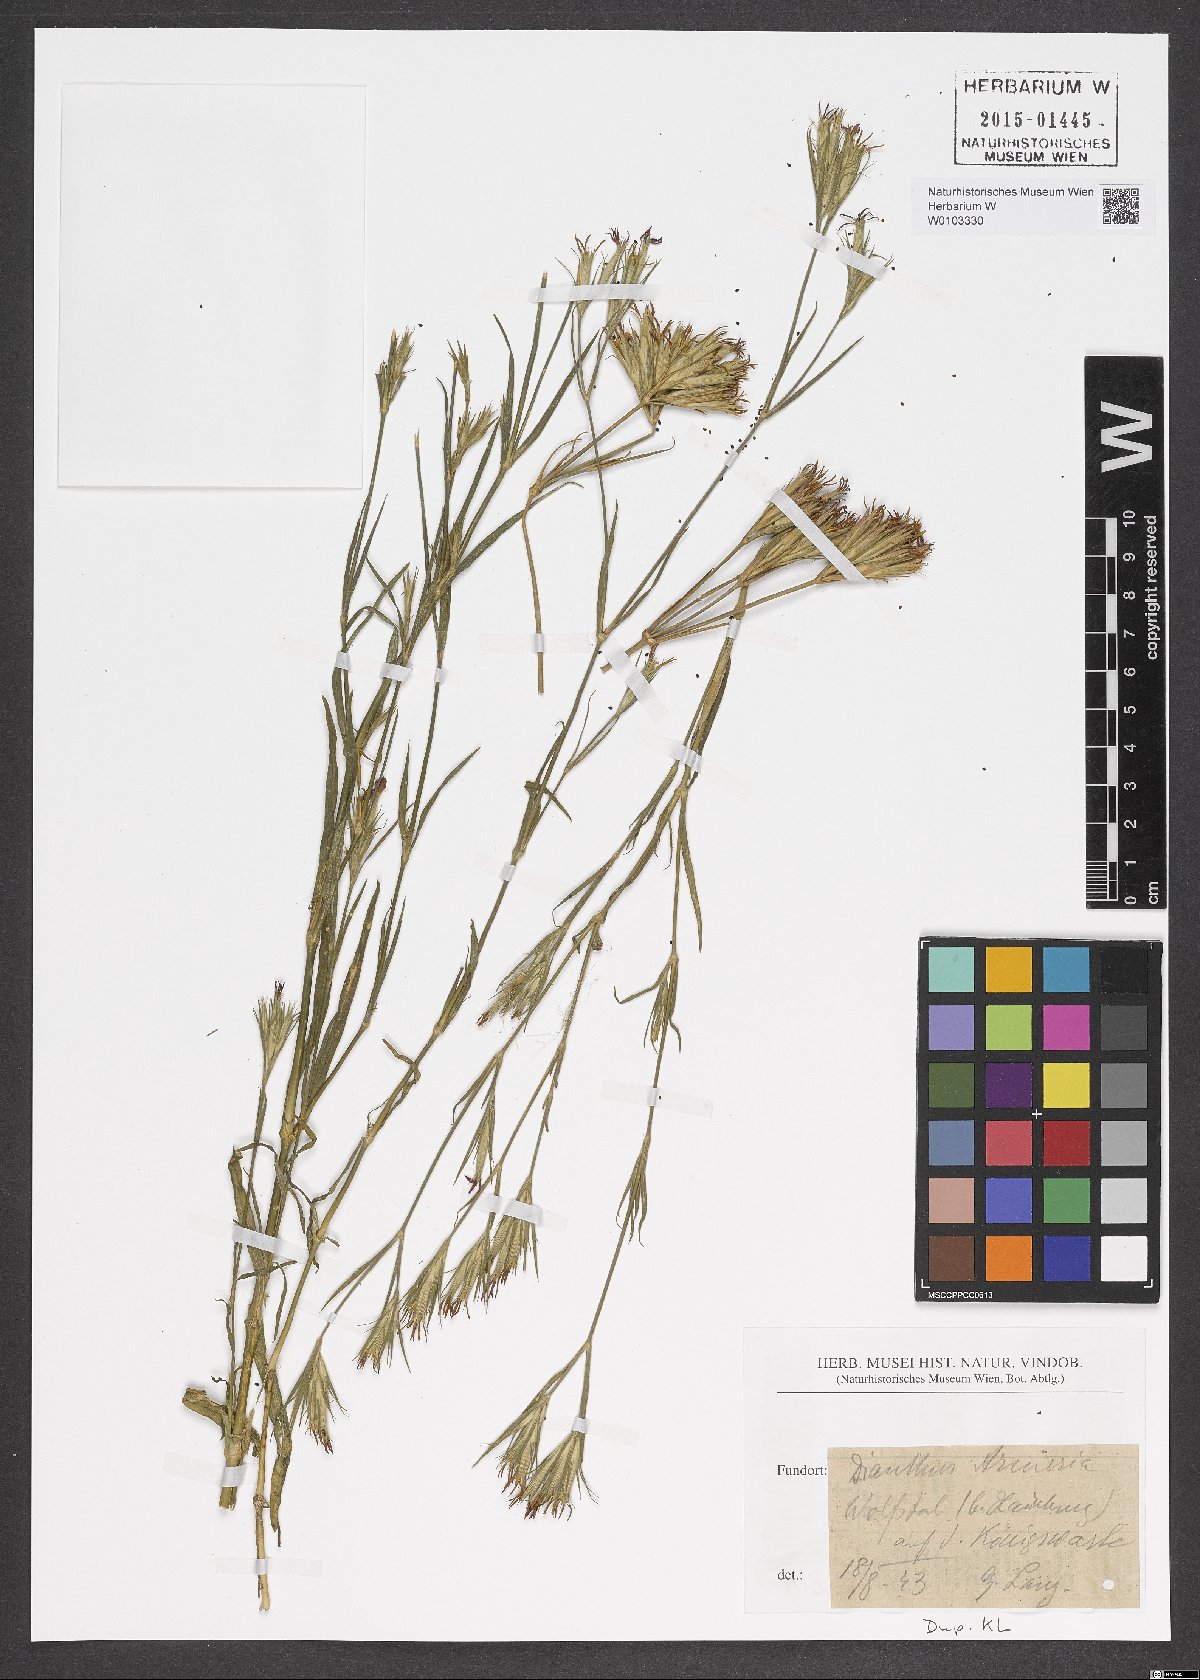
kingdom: Plantae
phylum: Tracheophyta
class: Magnoliopsida
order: Caryophyllales
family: Caryophyllaceae
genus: Dianthus
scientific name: Dianthus armeria
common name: Deptford pink
